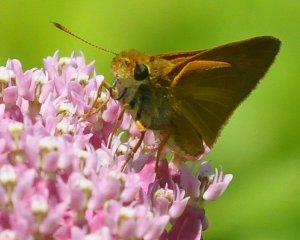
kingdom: Animalia
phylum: Arthropoda
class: Insecta
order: Lepidoptera
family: Hesperiidae
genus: Euphyes
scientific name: Euphyes dion
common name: Dion Skipper
